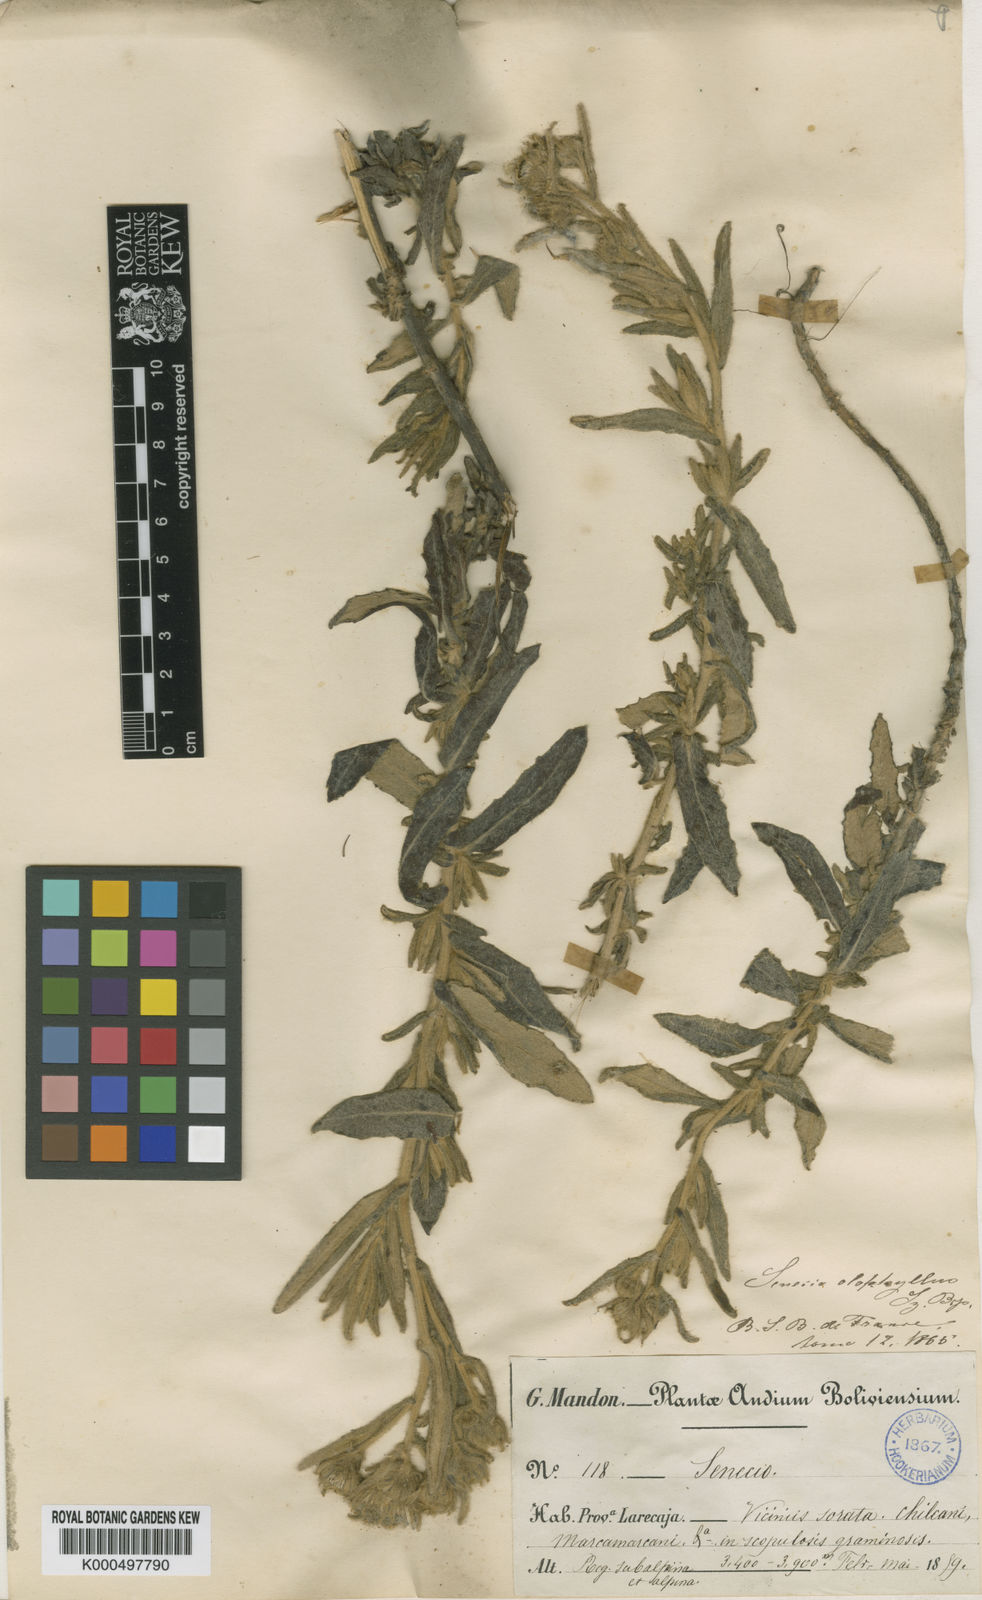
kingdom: Plantae
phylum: Tracheophyta
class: Magnoliopsida
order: Asterales
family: Asteraceae
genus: Senecio
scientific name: Senecio octophyllus
